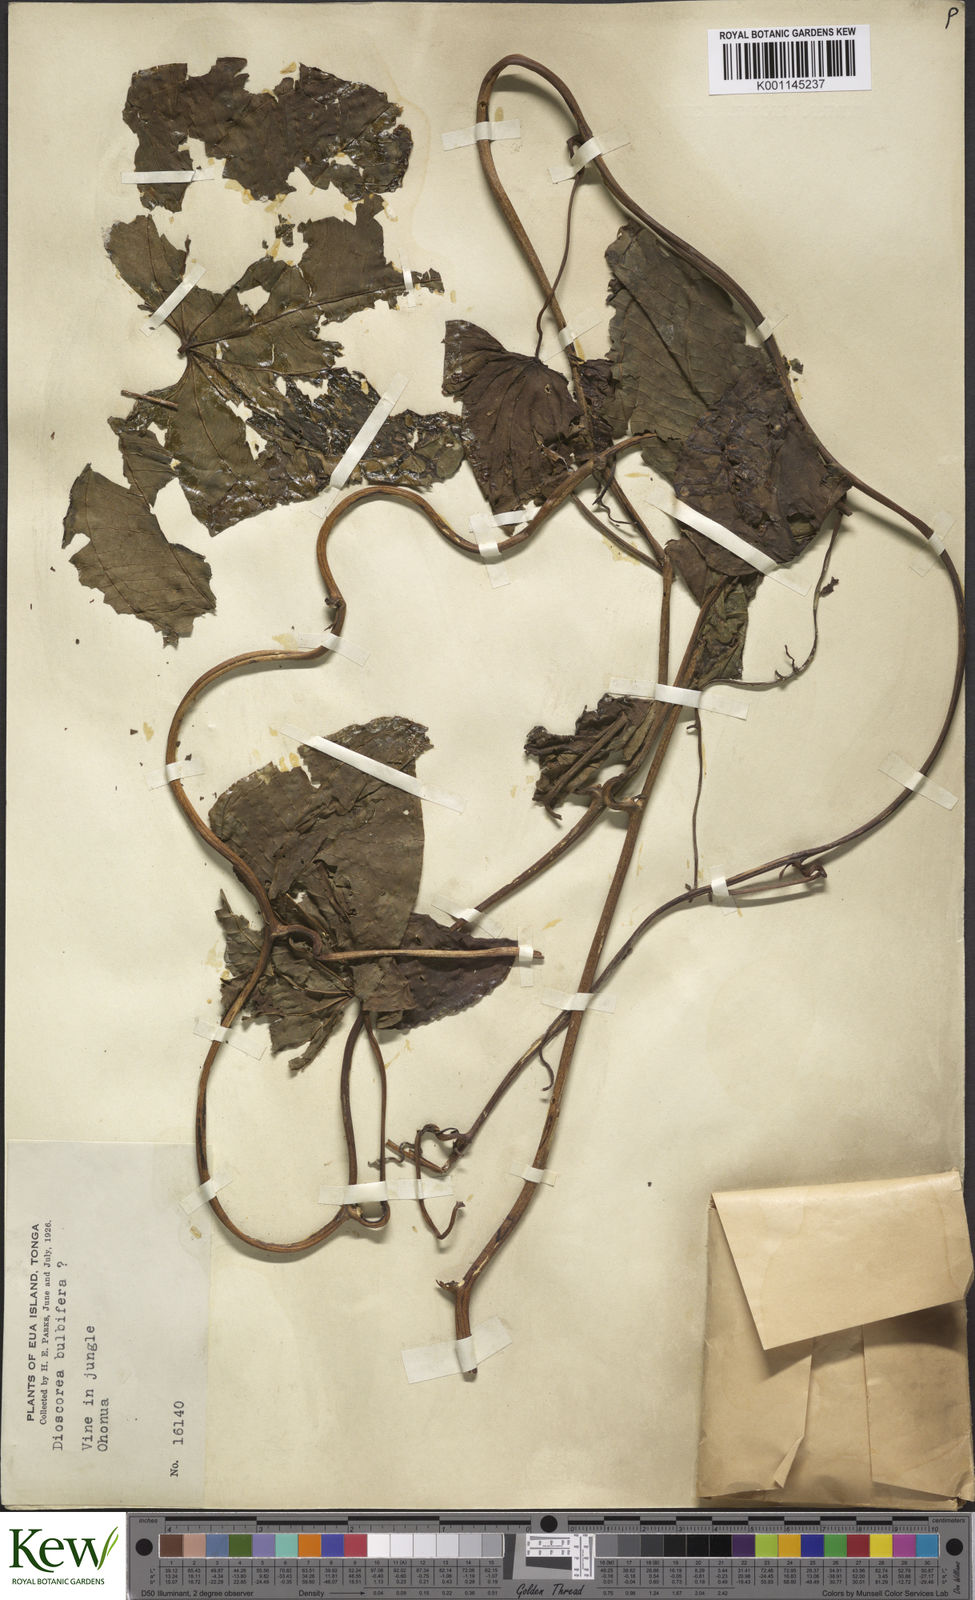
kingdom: Plantae
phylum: Tracheophyta
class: Liliopsida
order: Dioscoreales
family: Dioscoreaceae
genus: Dioscorea
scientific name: Dioscorea bulbifera
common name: Air yam
